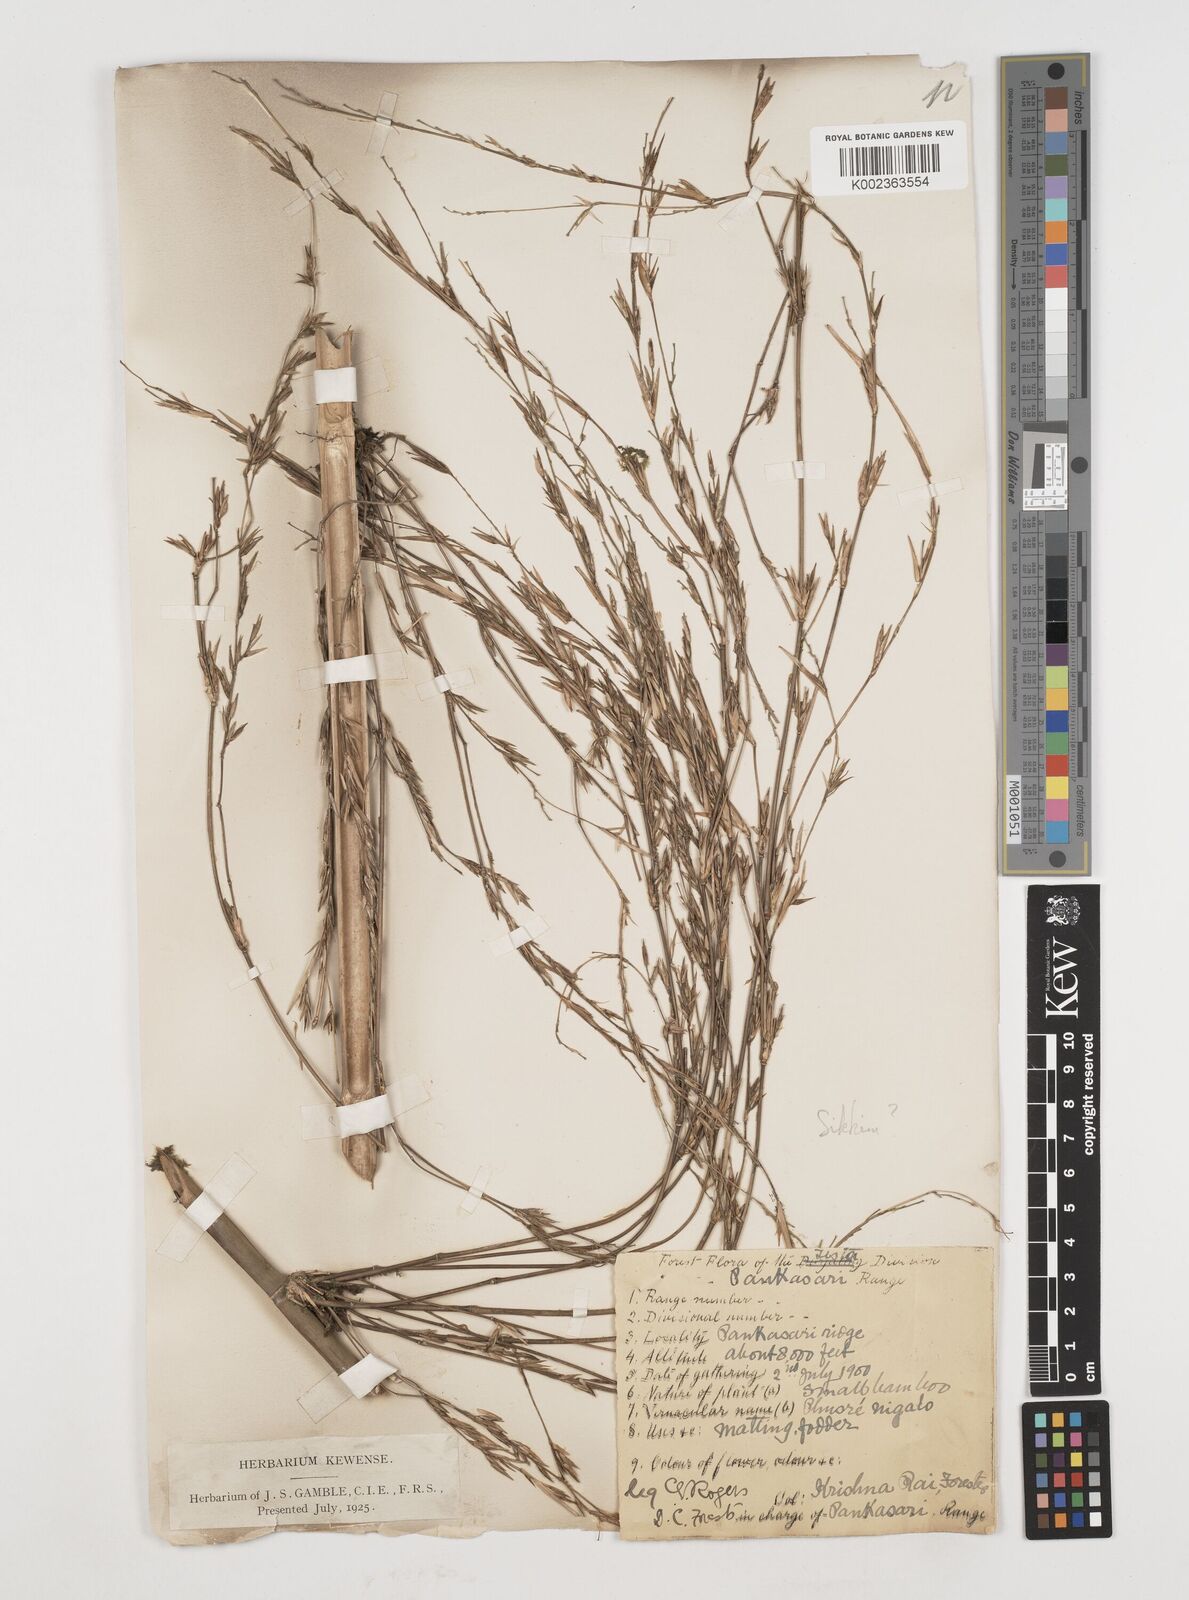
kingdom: Plantae
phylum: Tracheophyta
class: Liliopsida
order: Poales
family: Poaceae
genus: Himalayacalamus
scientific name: Himalayacalamus falconeri
